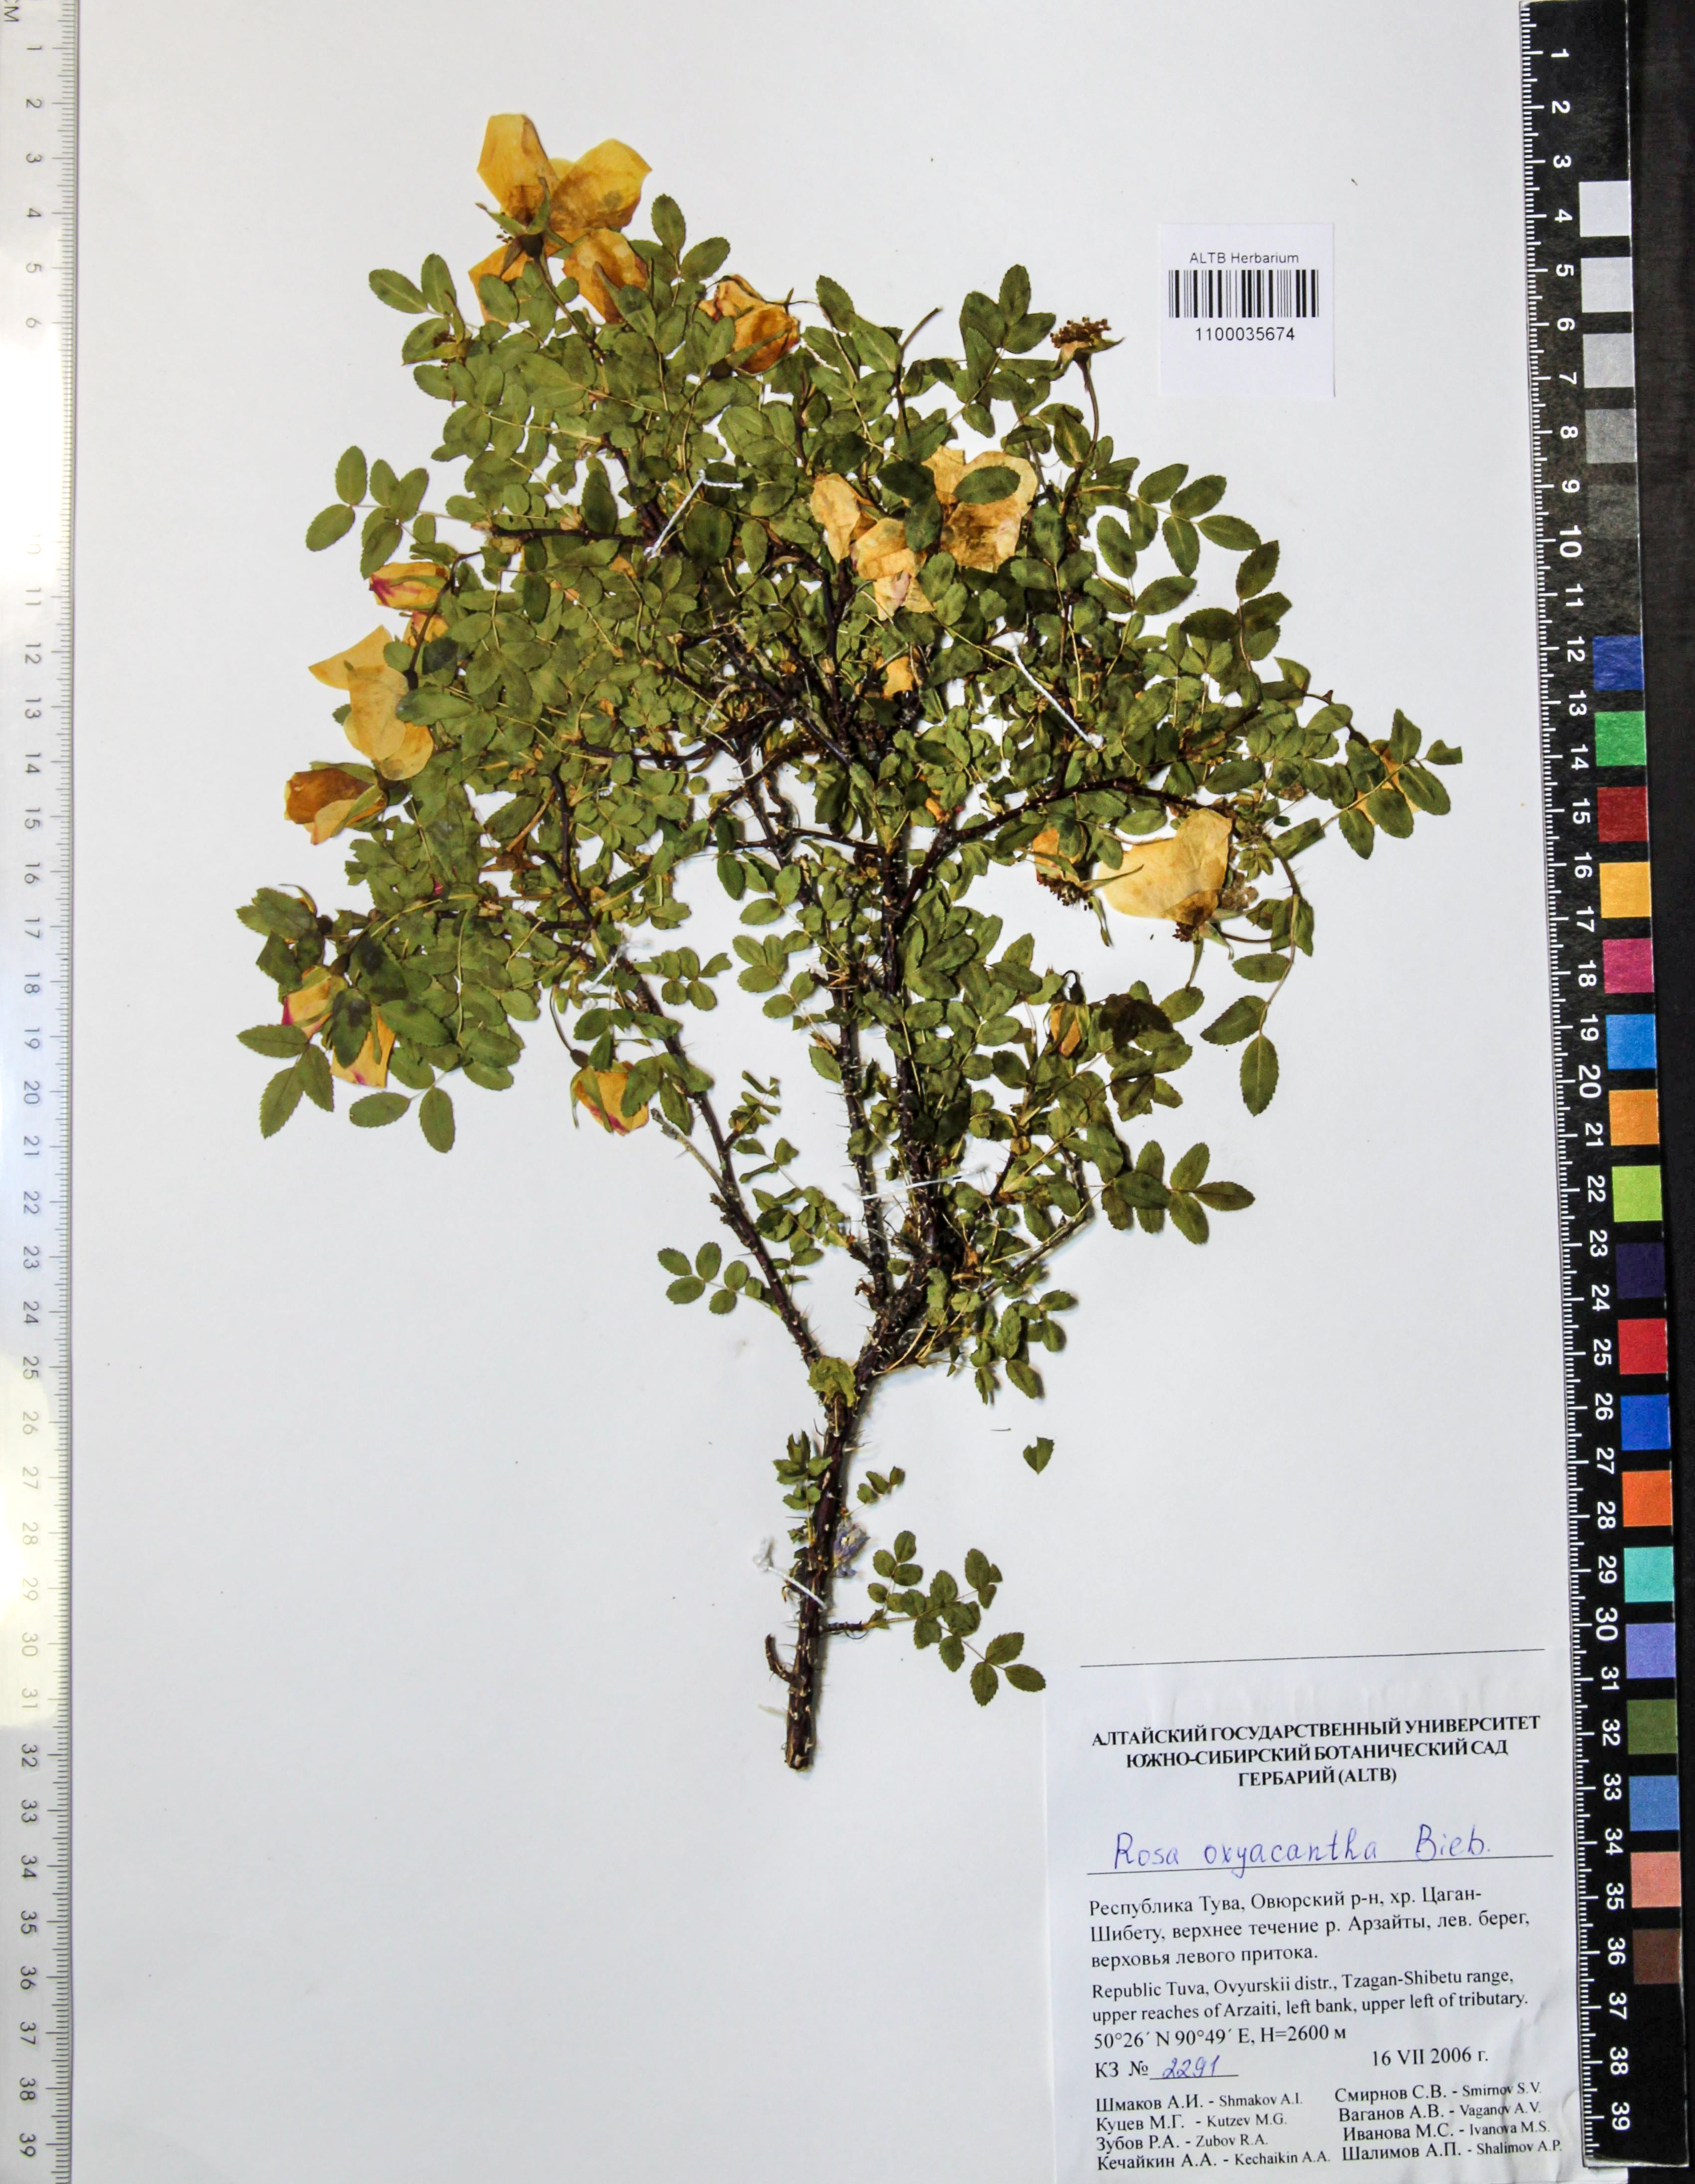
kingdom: Plantae
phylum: Tracheophyta
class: Magnoliopsida
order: Rosales
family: Rosaceae
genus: Rosa
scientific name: Rosa oxyacantha
